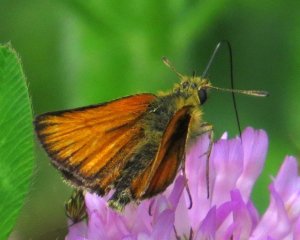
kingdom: Animalia
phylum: Arthropoda
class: Insecta
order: Lepidoptera
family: Hesperiidae
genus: Thymelicus
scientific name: Thymelicus lineola
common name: European Skipper
